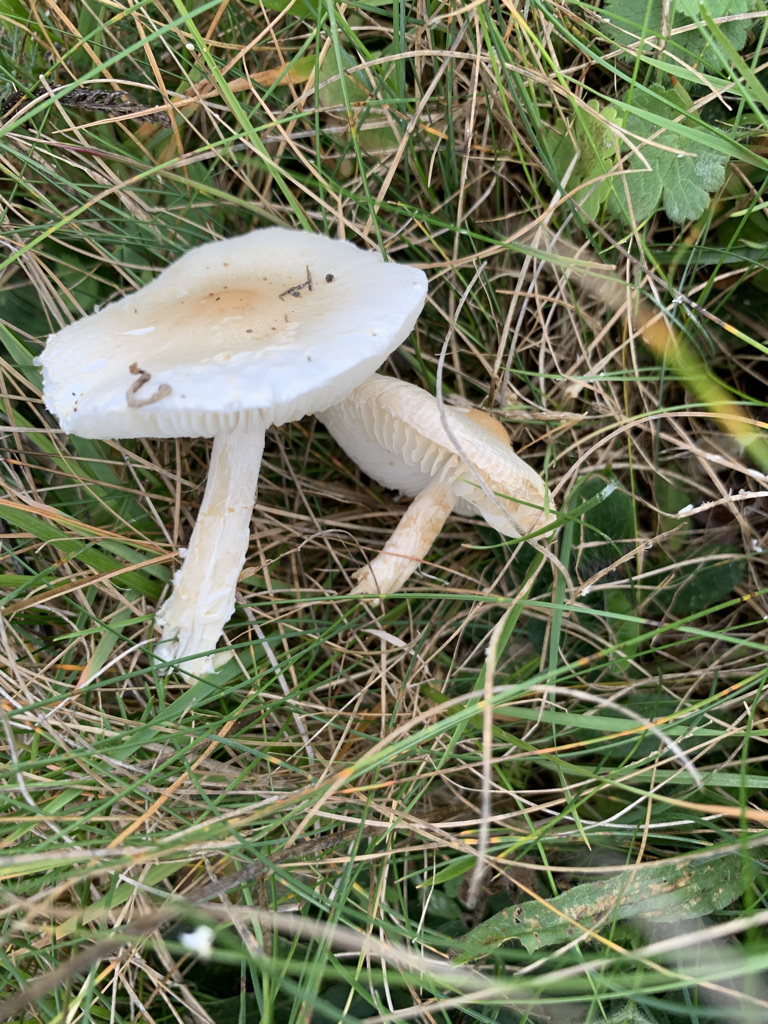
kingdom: Fungi
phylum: Basidiomycota
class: Agaricomycetes
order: Agaricales
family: Agaricaceae
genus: Lepiota
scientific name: Lepiota erminea
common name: hvid parasolhat
